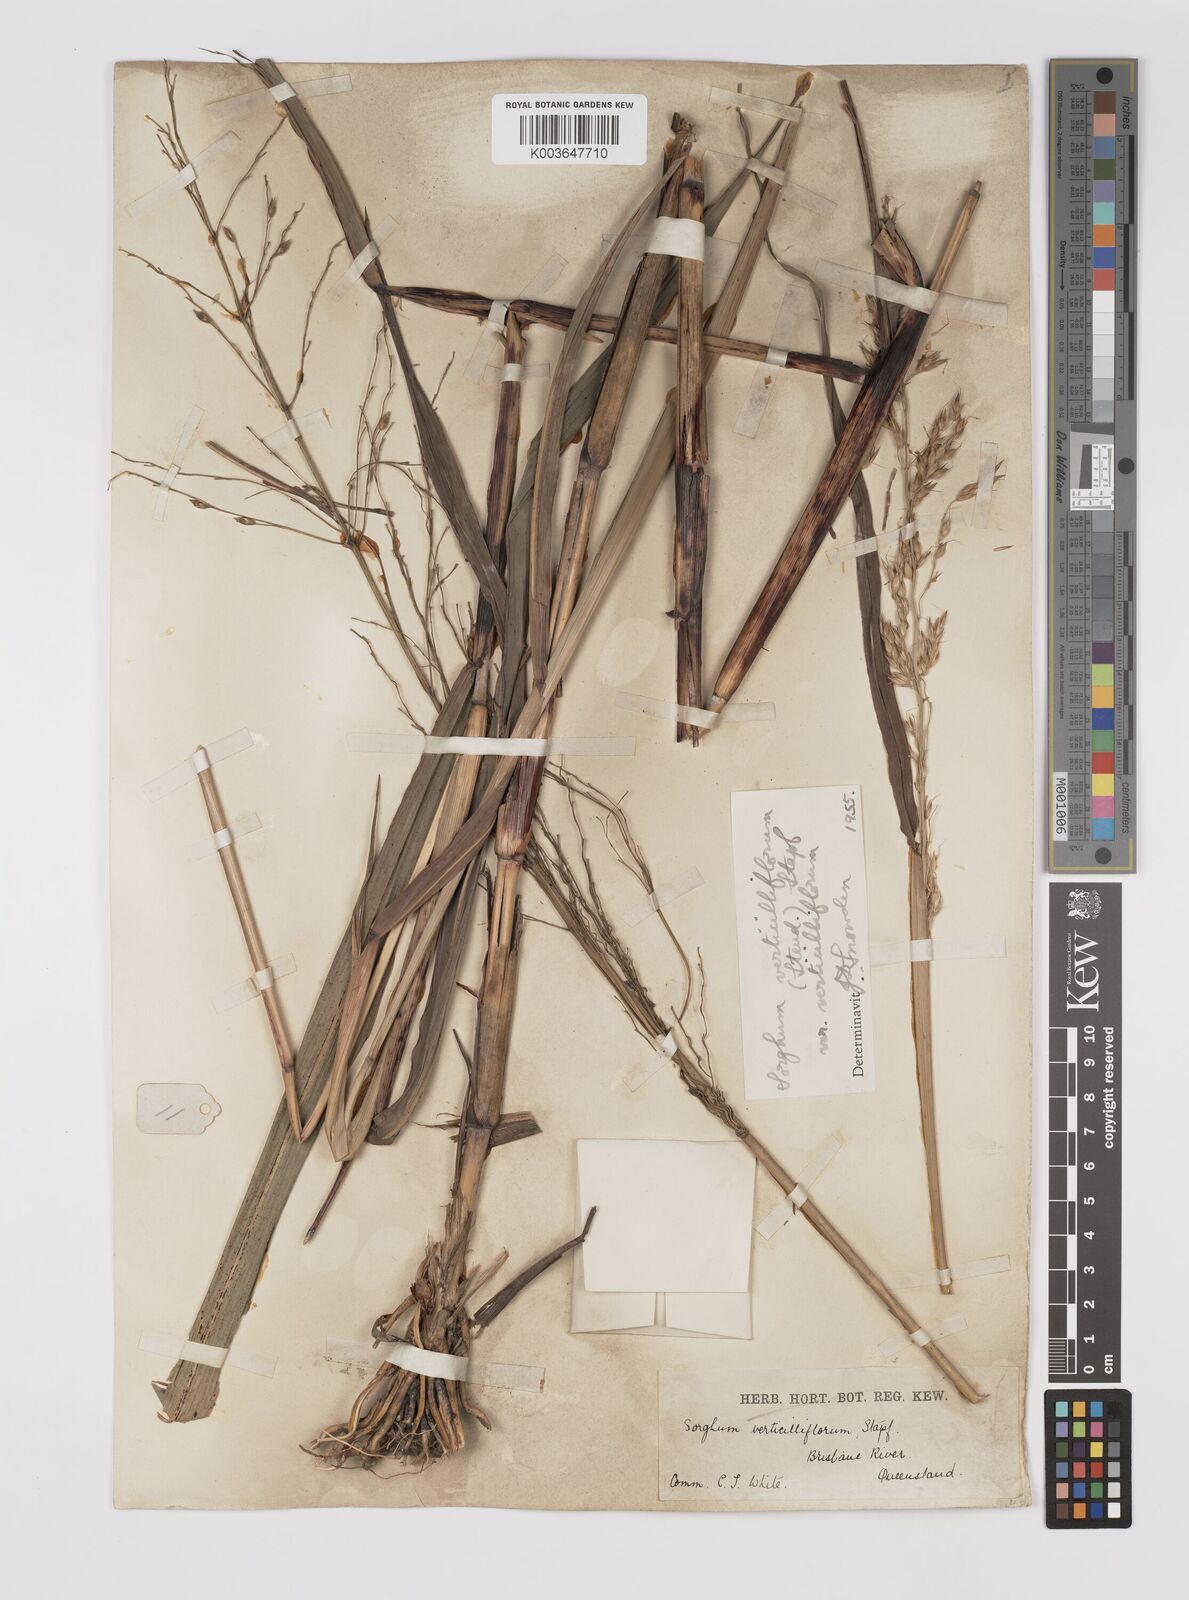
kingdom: Plantae
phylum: Tracheophyta
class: Liliopsida
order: Poales
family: Poaceae
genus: Sorghum
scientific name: Sorghum arundinaceum
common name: Sorghum
